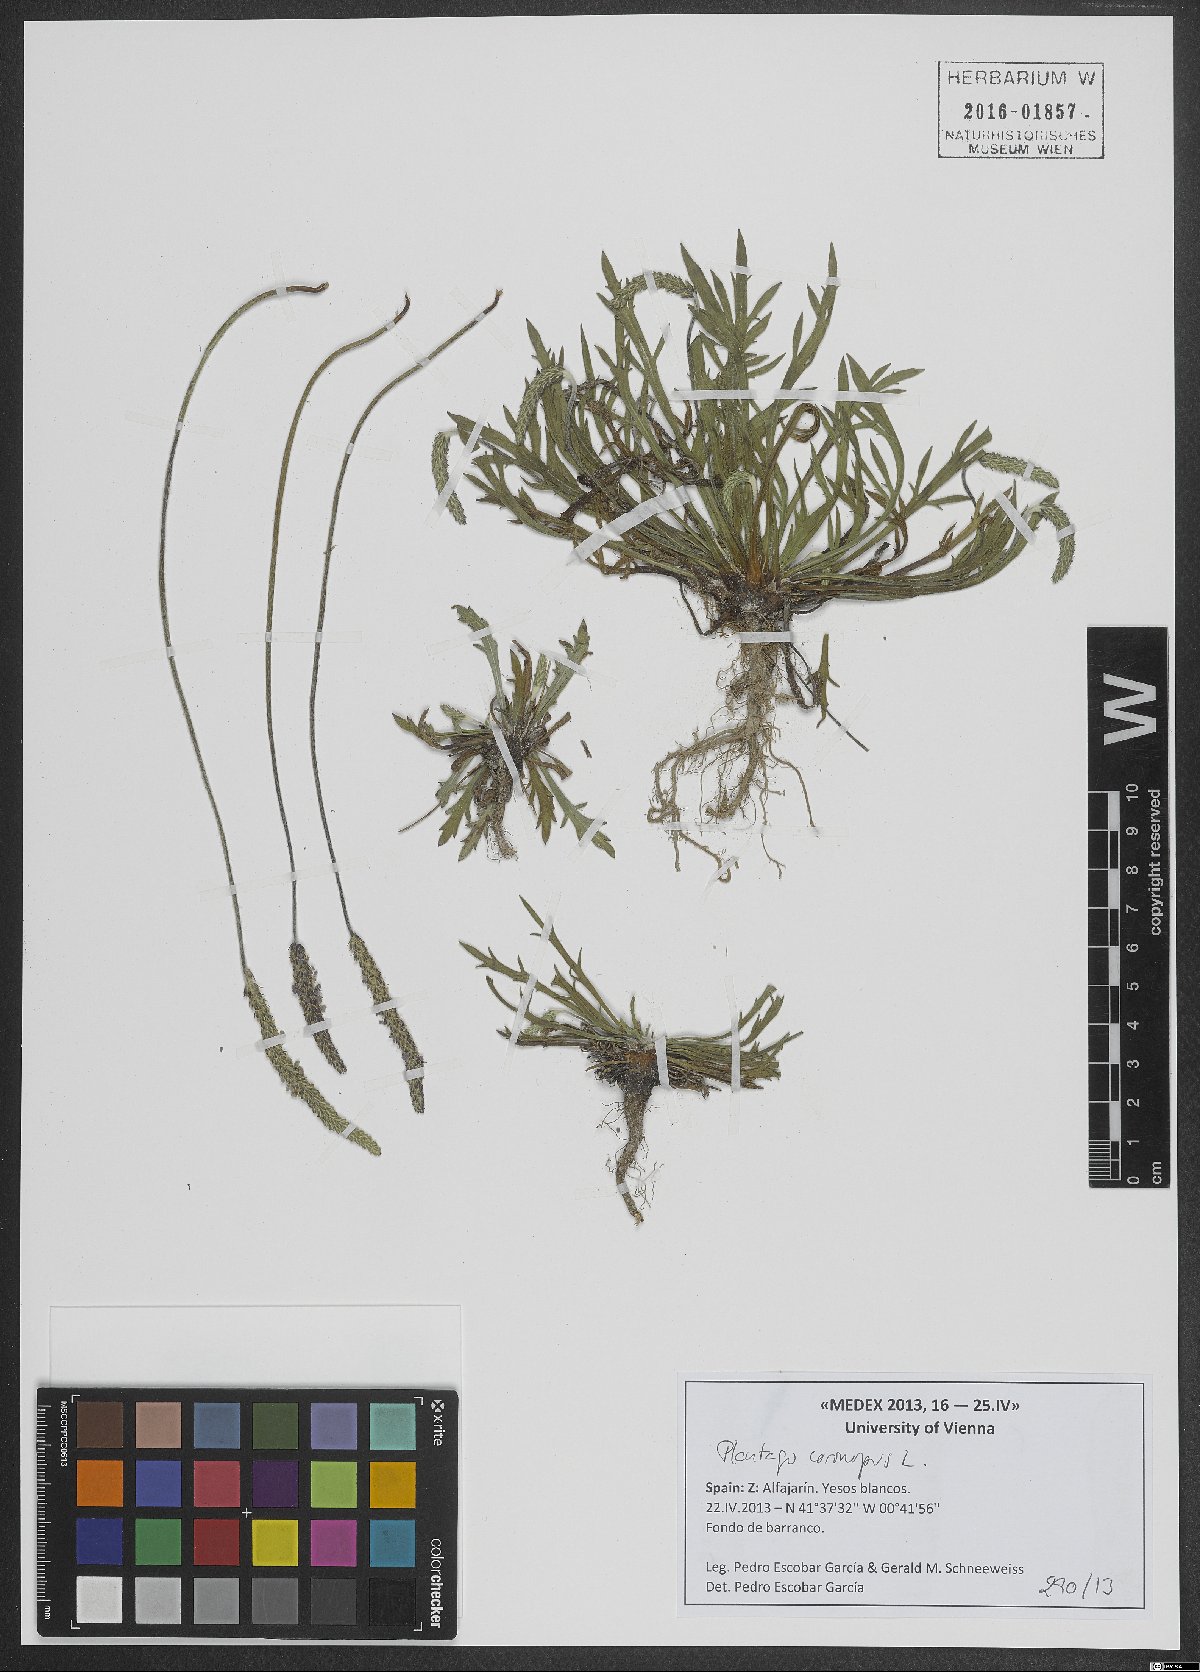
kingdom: Plantae
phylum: Tracheophyta
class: Magnoliopsida
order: Lamiales
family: Plantaginaceae
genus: Plantago
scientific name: Plantago coronopus
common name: Buck's-horn plantain
